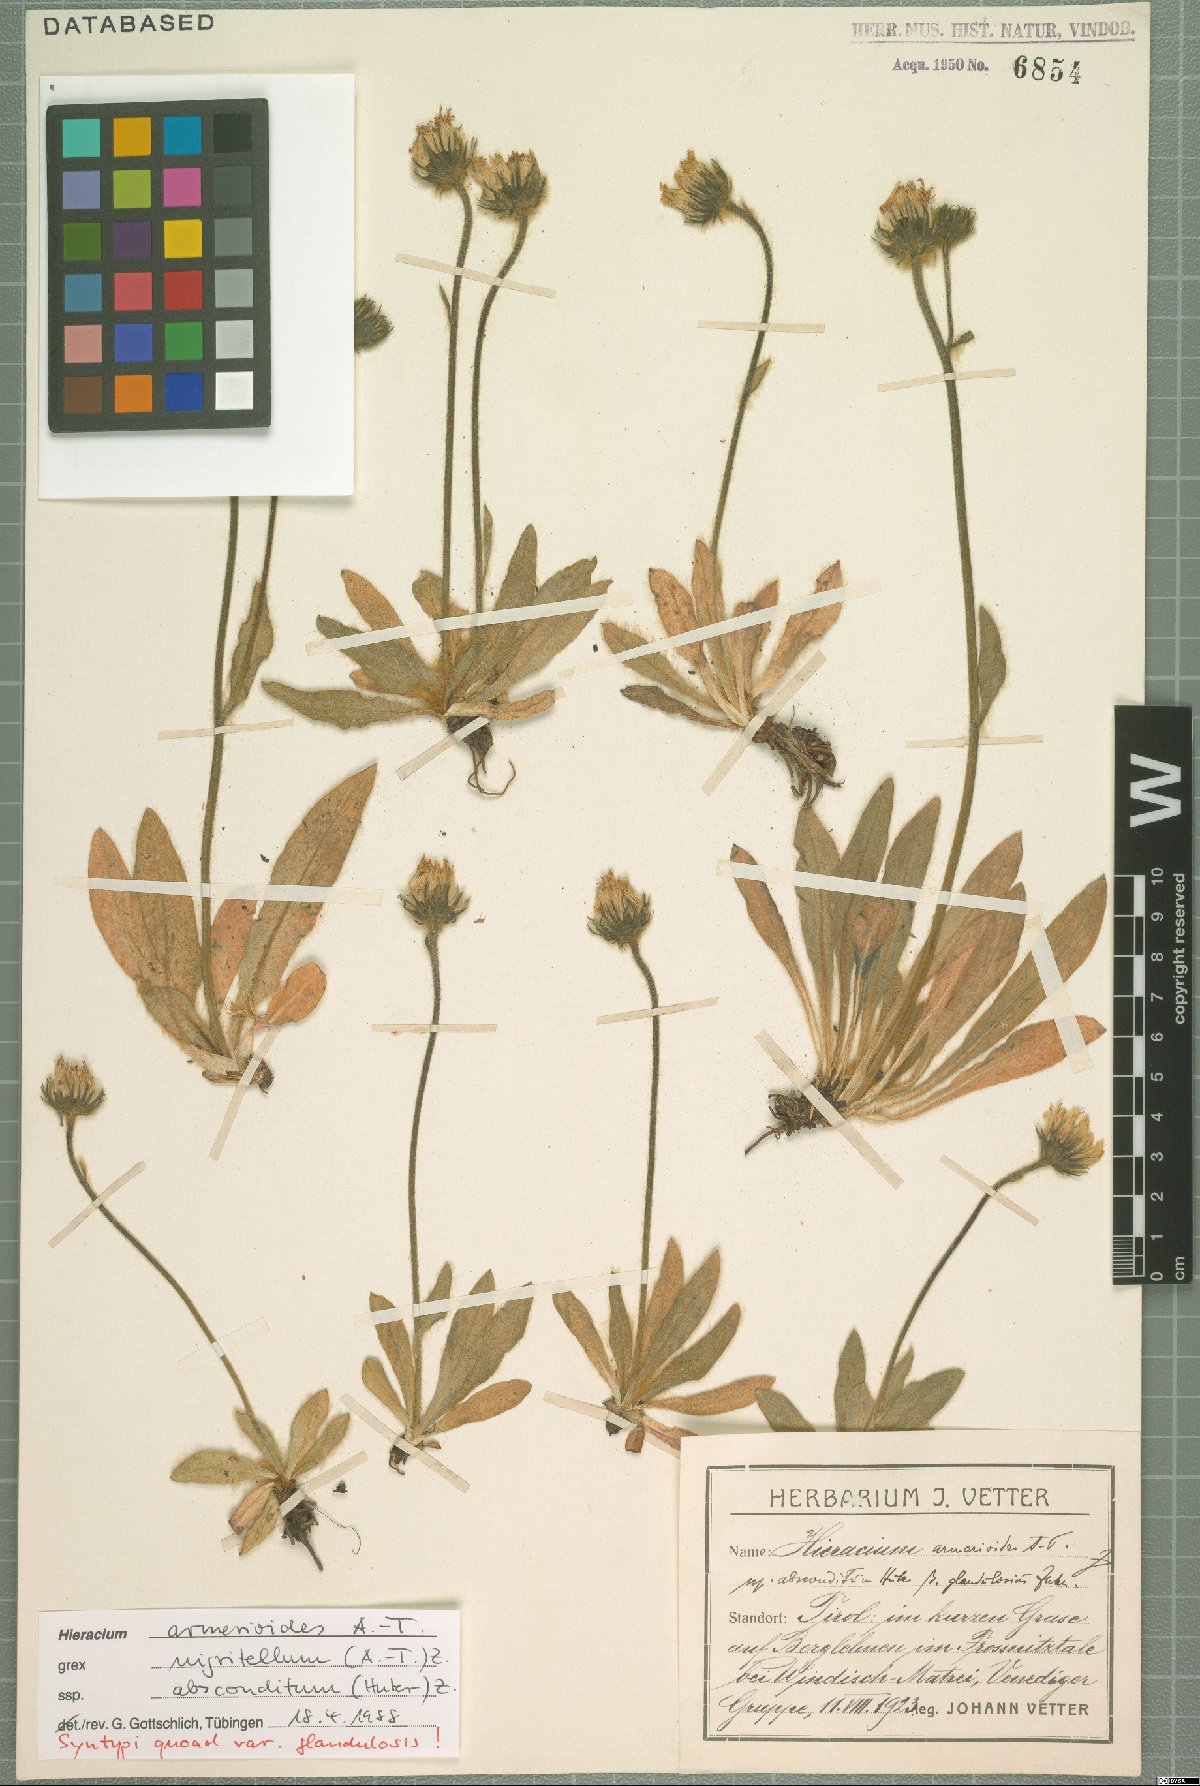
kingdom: Plantae
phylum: Tracheophyta
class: Magnoliopsida
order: Asterales
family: Asteraceae
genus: Hieracium
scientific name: Hieracium armerioides
